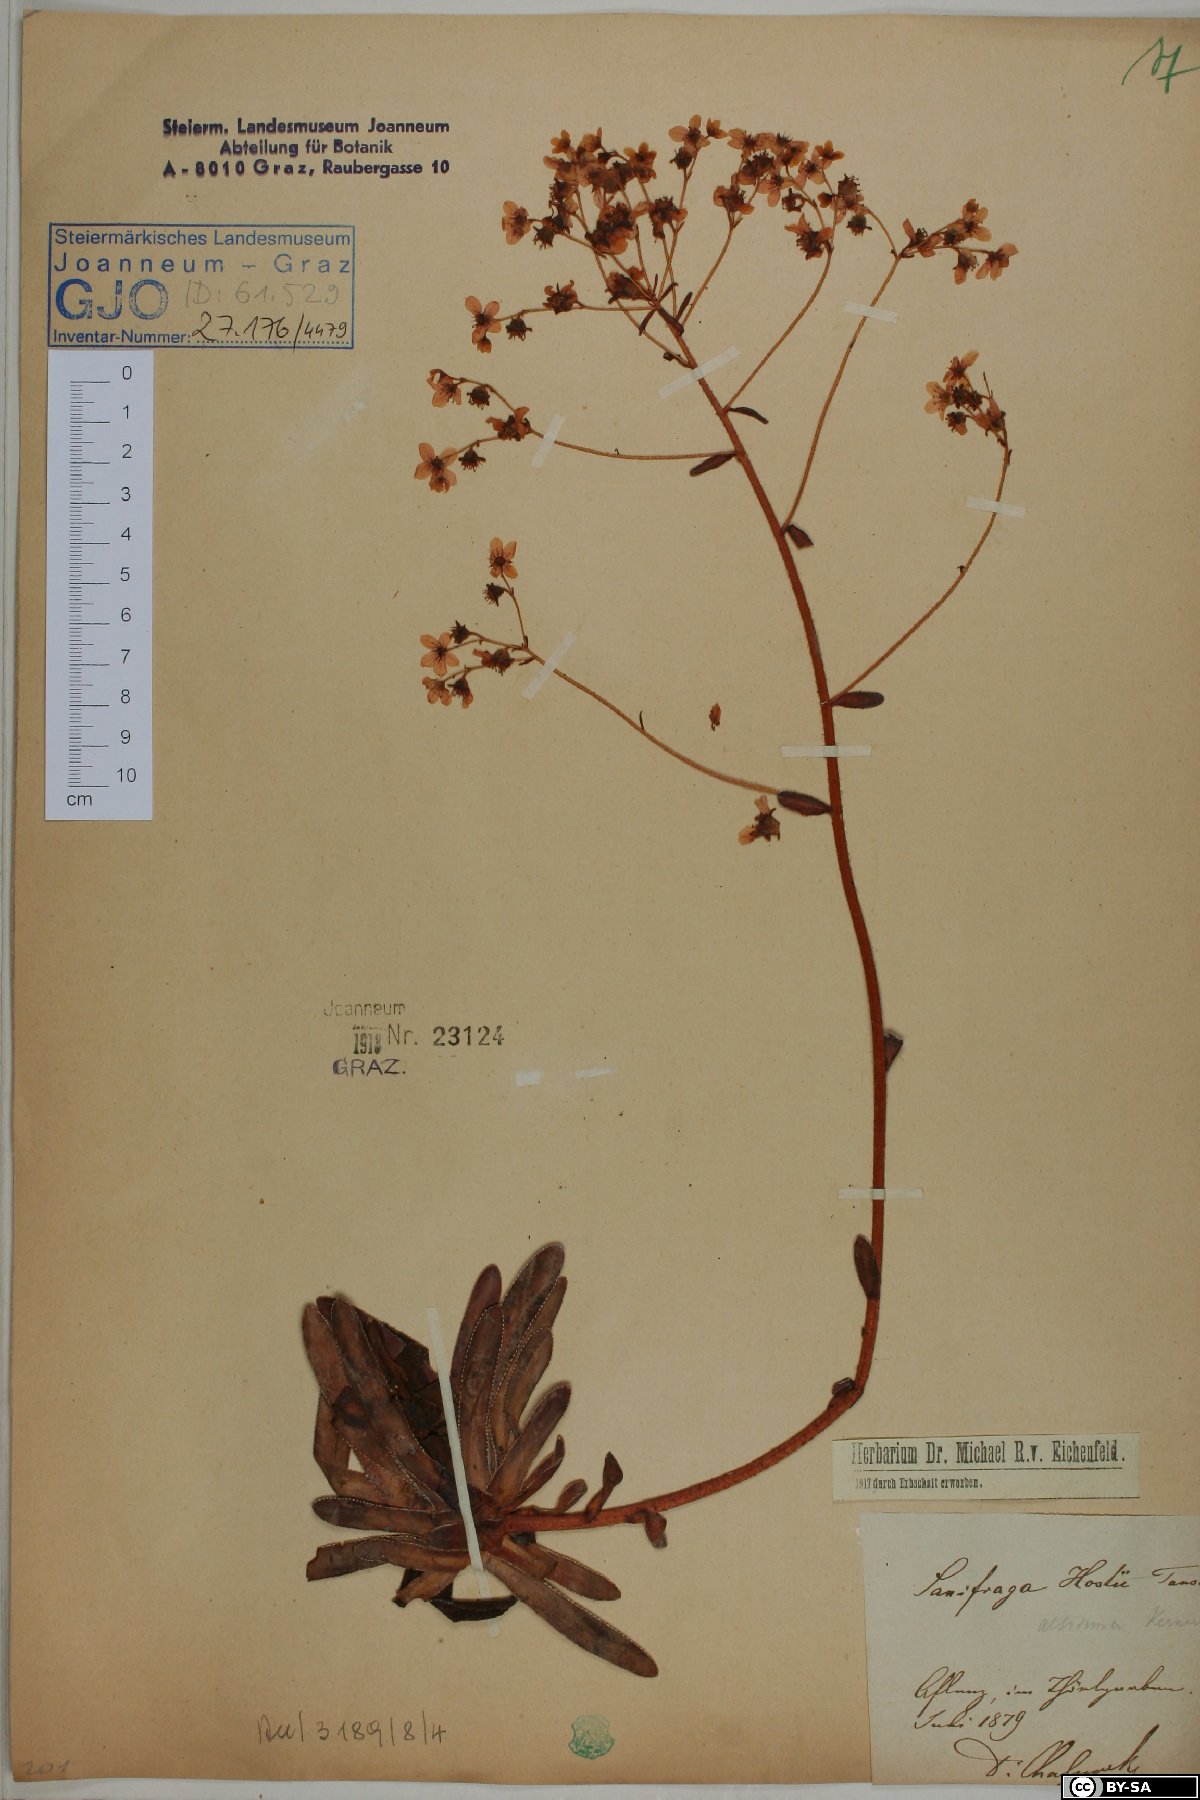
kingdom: Plantae
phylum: Tracheophyta
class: Magnoliopsida
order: Saxifragales
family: Saxifragaceae
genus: Saxifraga
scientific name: Saxifraga hostii
